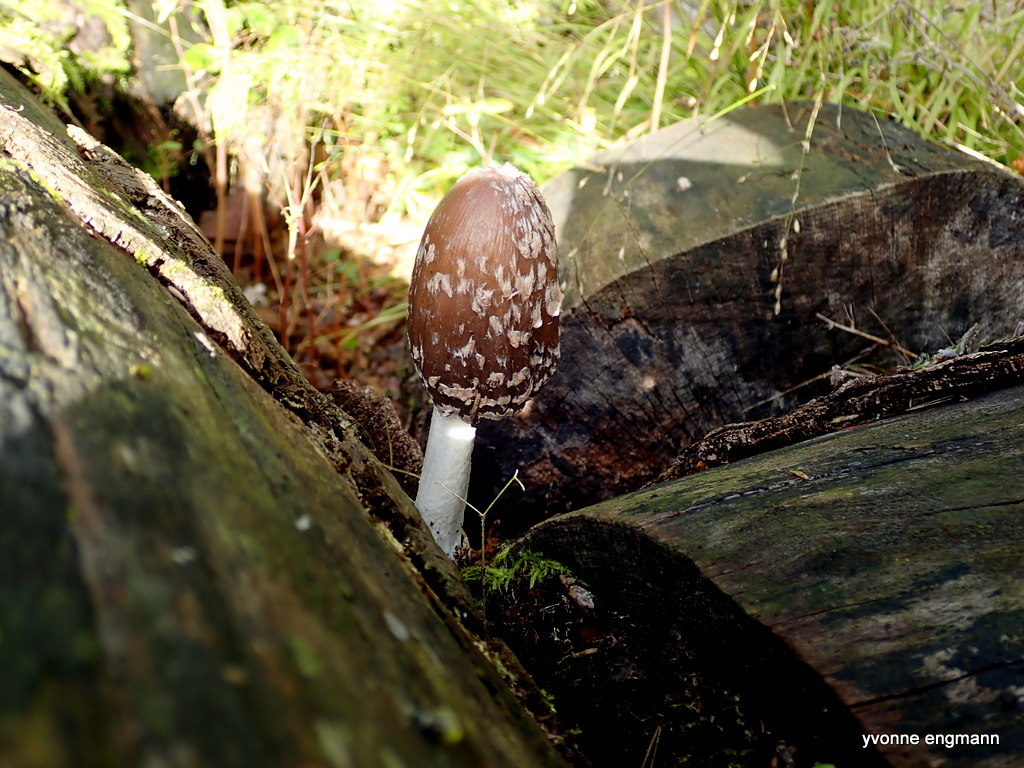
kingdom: Fungi
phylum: Basidiomycota
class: Agaricomycetes
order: Agaricales
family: Psathyrellaceae
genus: Coprinopsis
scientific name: Coprinopsis picacea
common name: skade-blækhat
